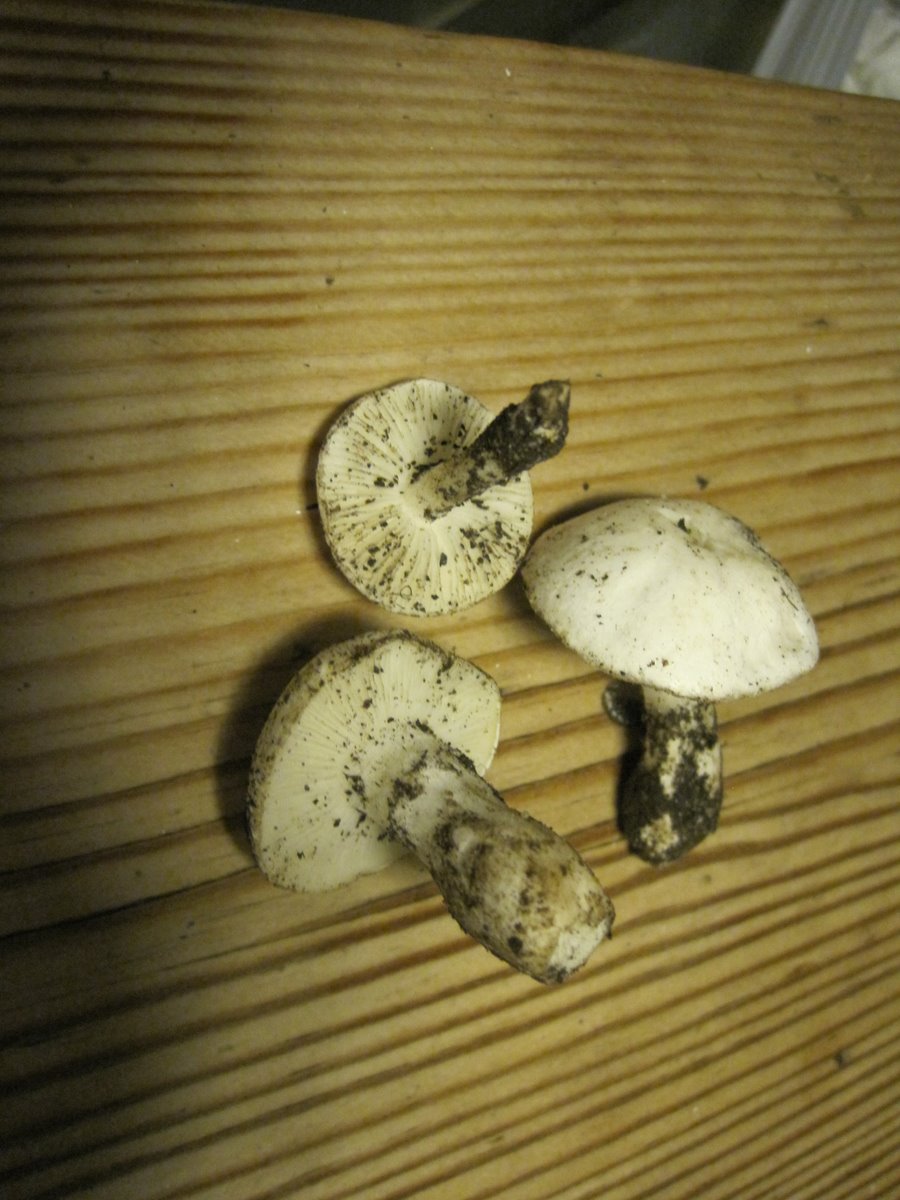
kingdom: Fungi
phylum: Basidiomycota
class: Agaricomycetes
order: Agaricales
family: Lyophyllaceae
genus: Tricholomella
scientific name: Tricholomella constricta
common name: ring-fagerhat
